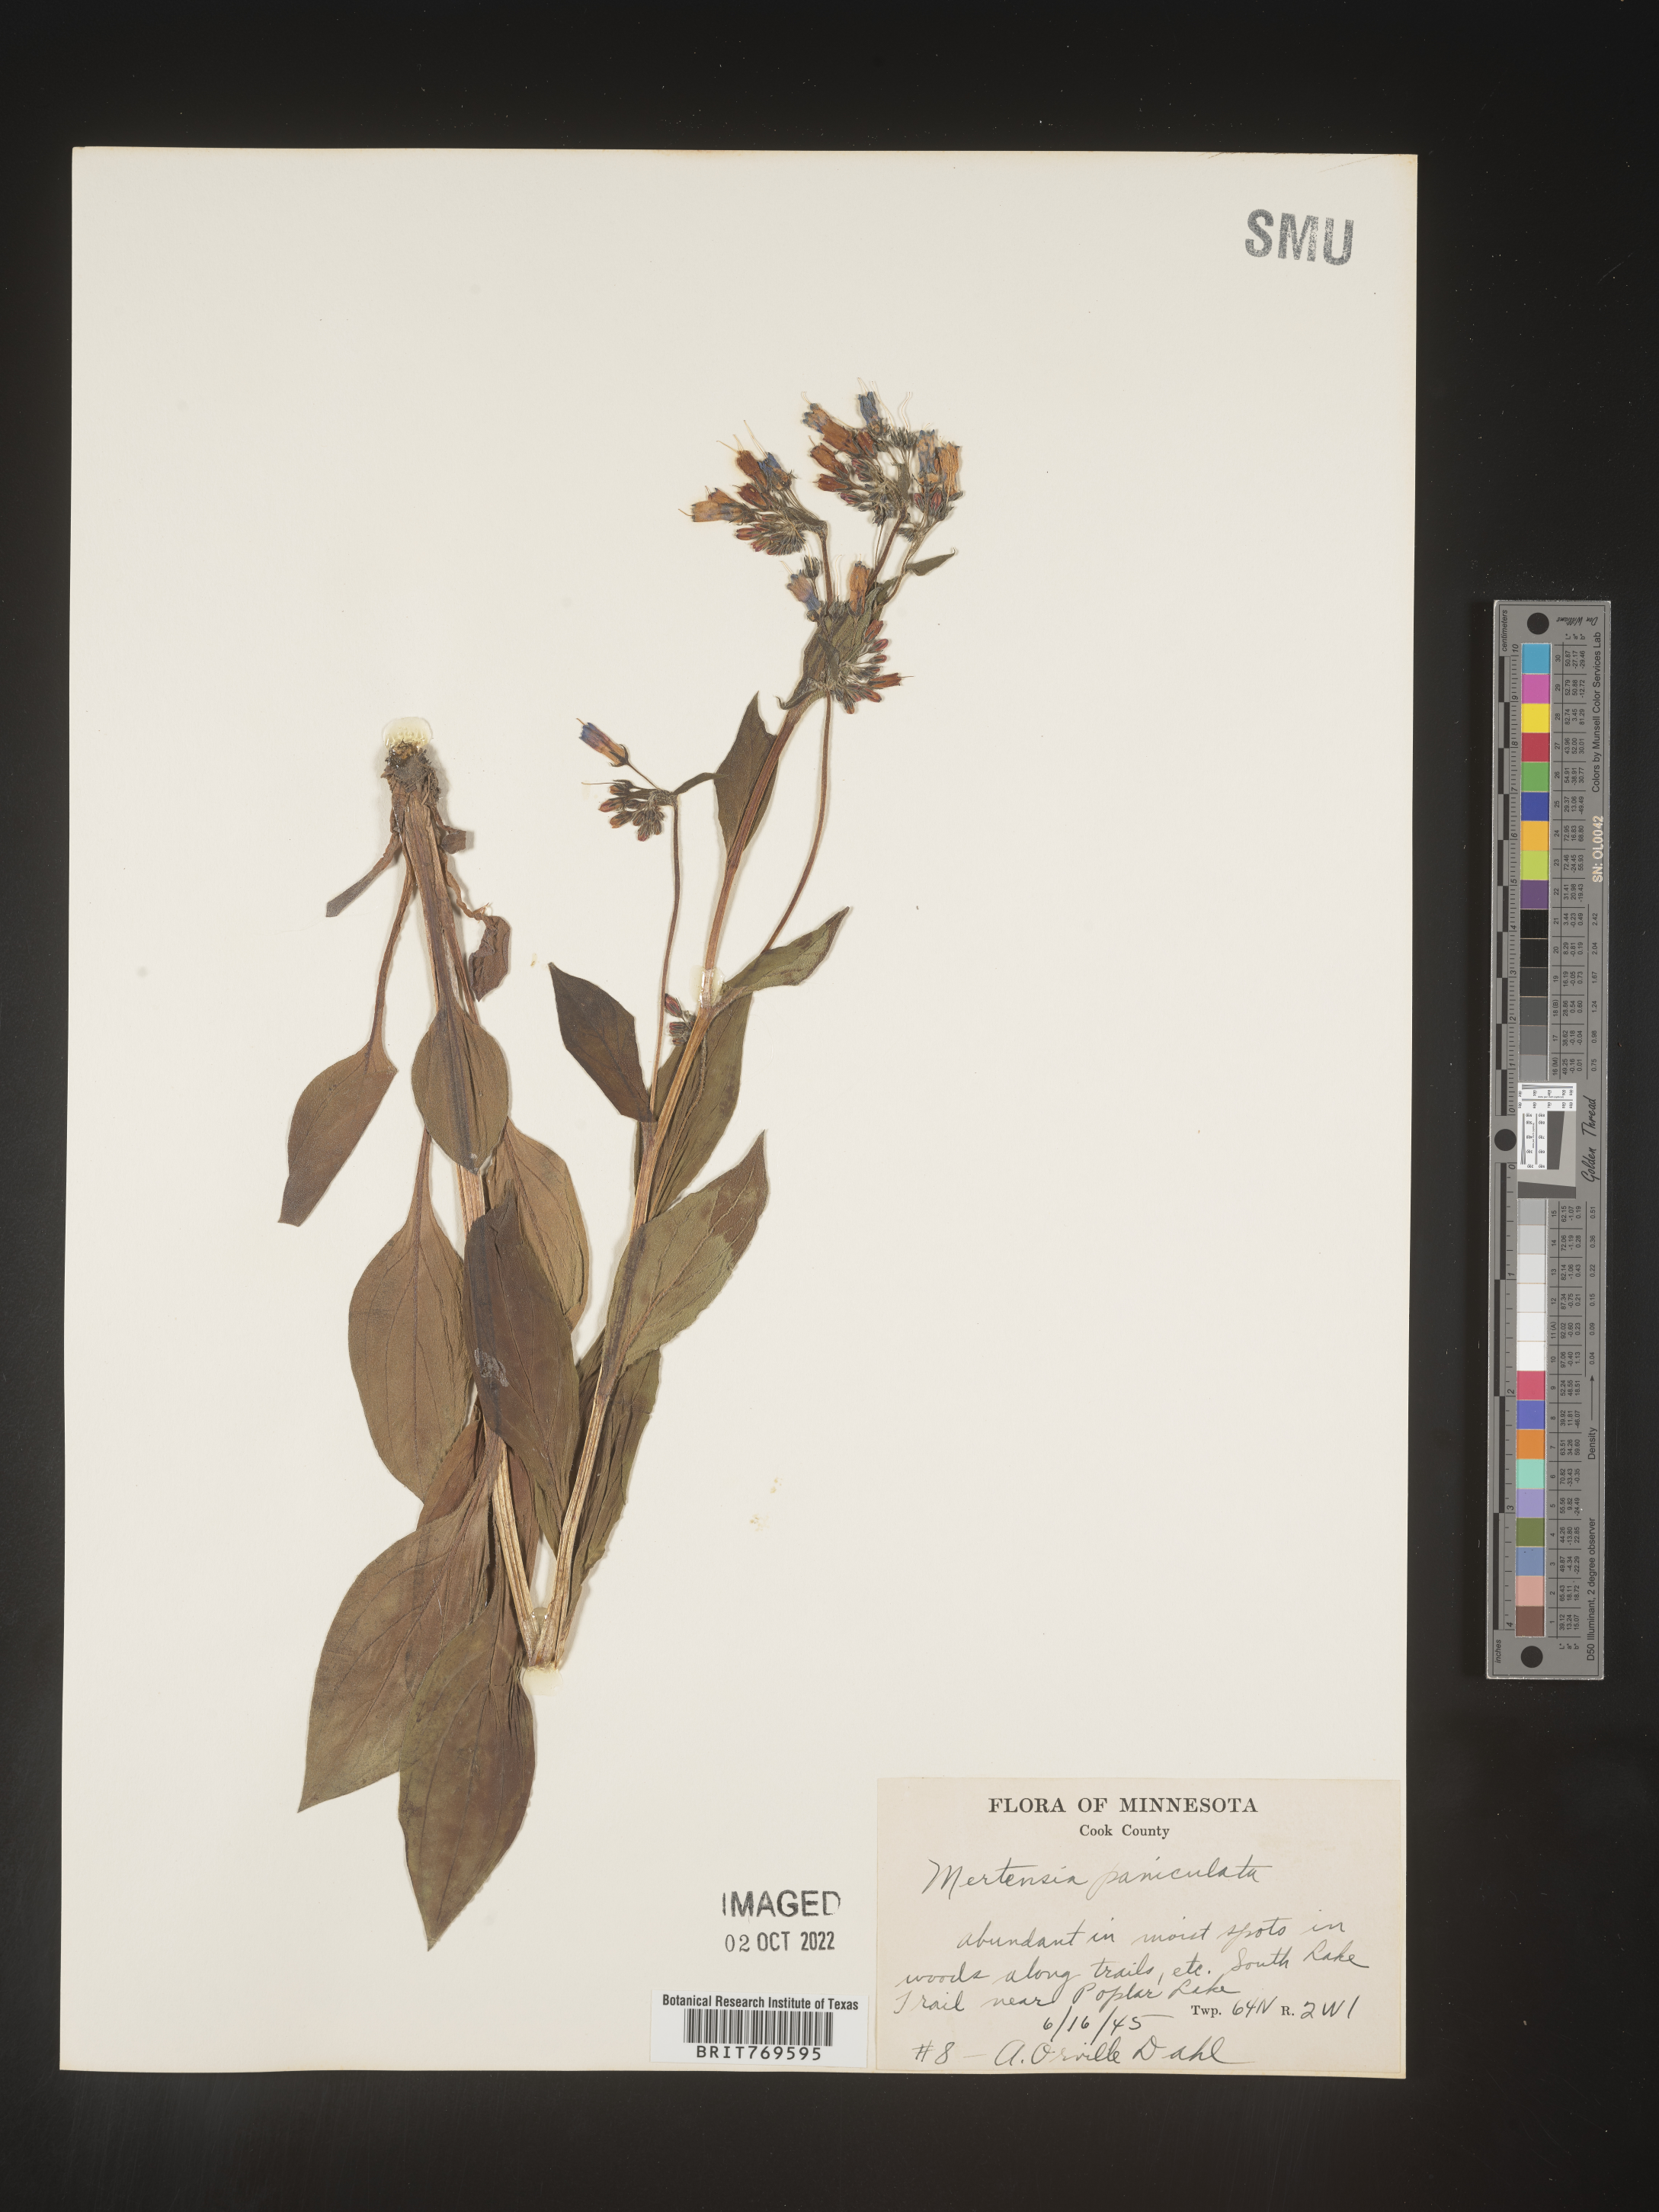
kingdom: Plantae
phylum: Tracheophyta
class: Magnoliopsida
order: Boraginales
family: Boraginaceae
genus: Mertensia
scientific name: Mertensia
